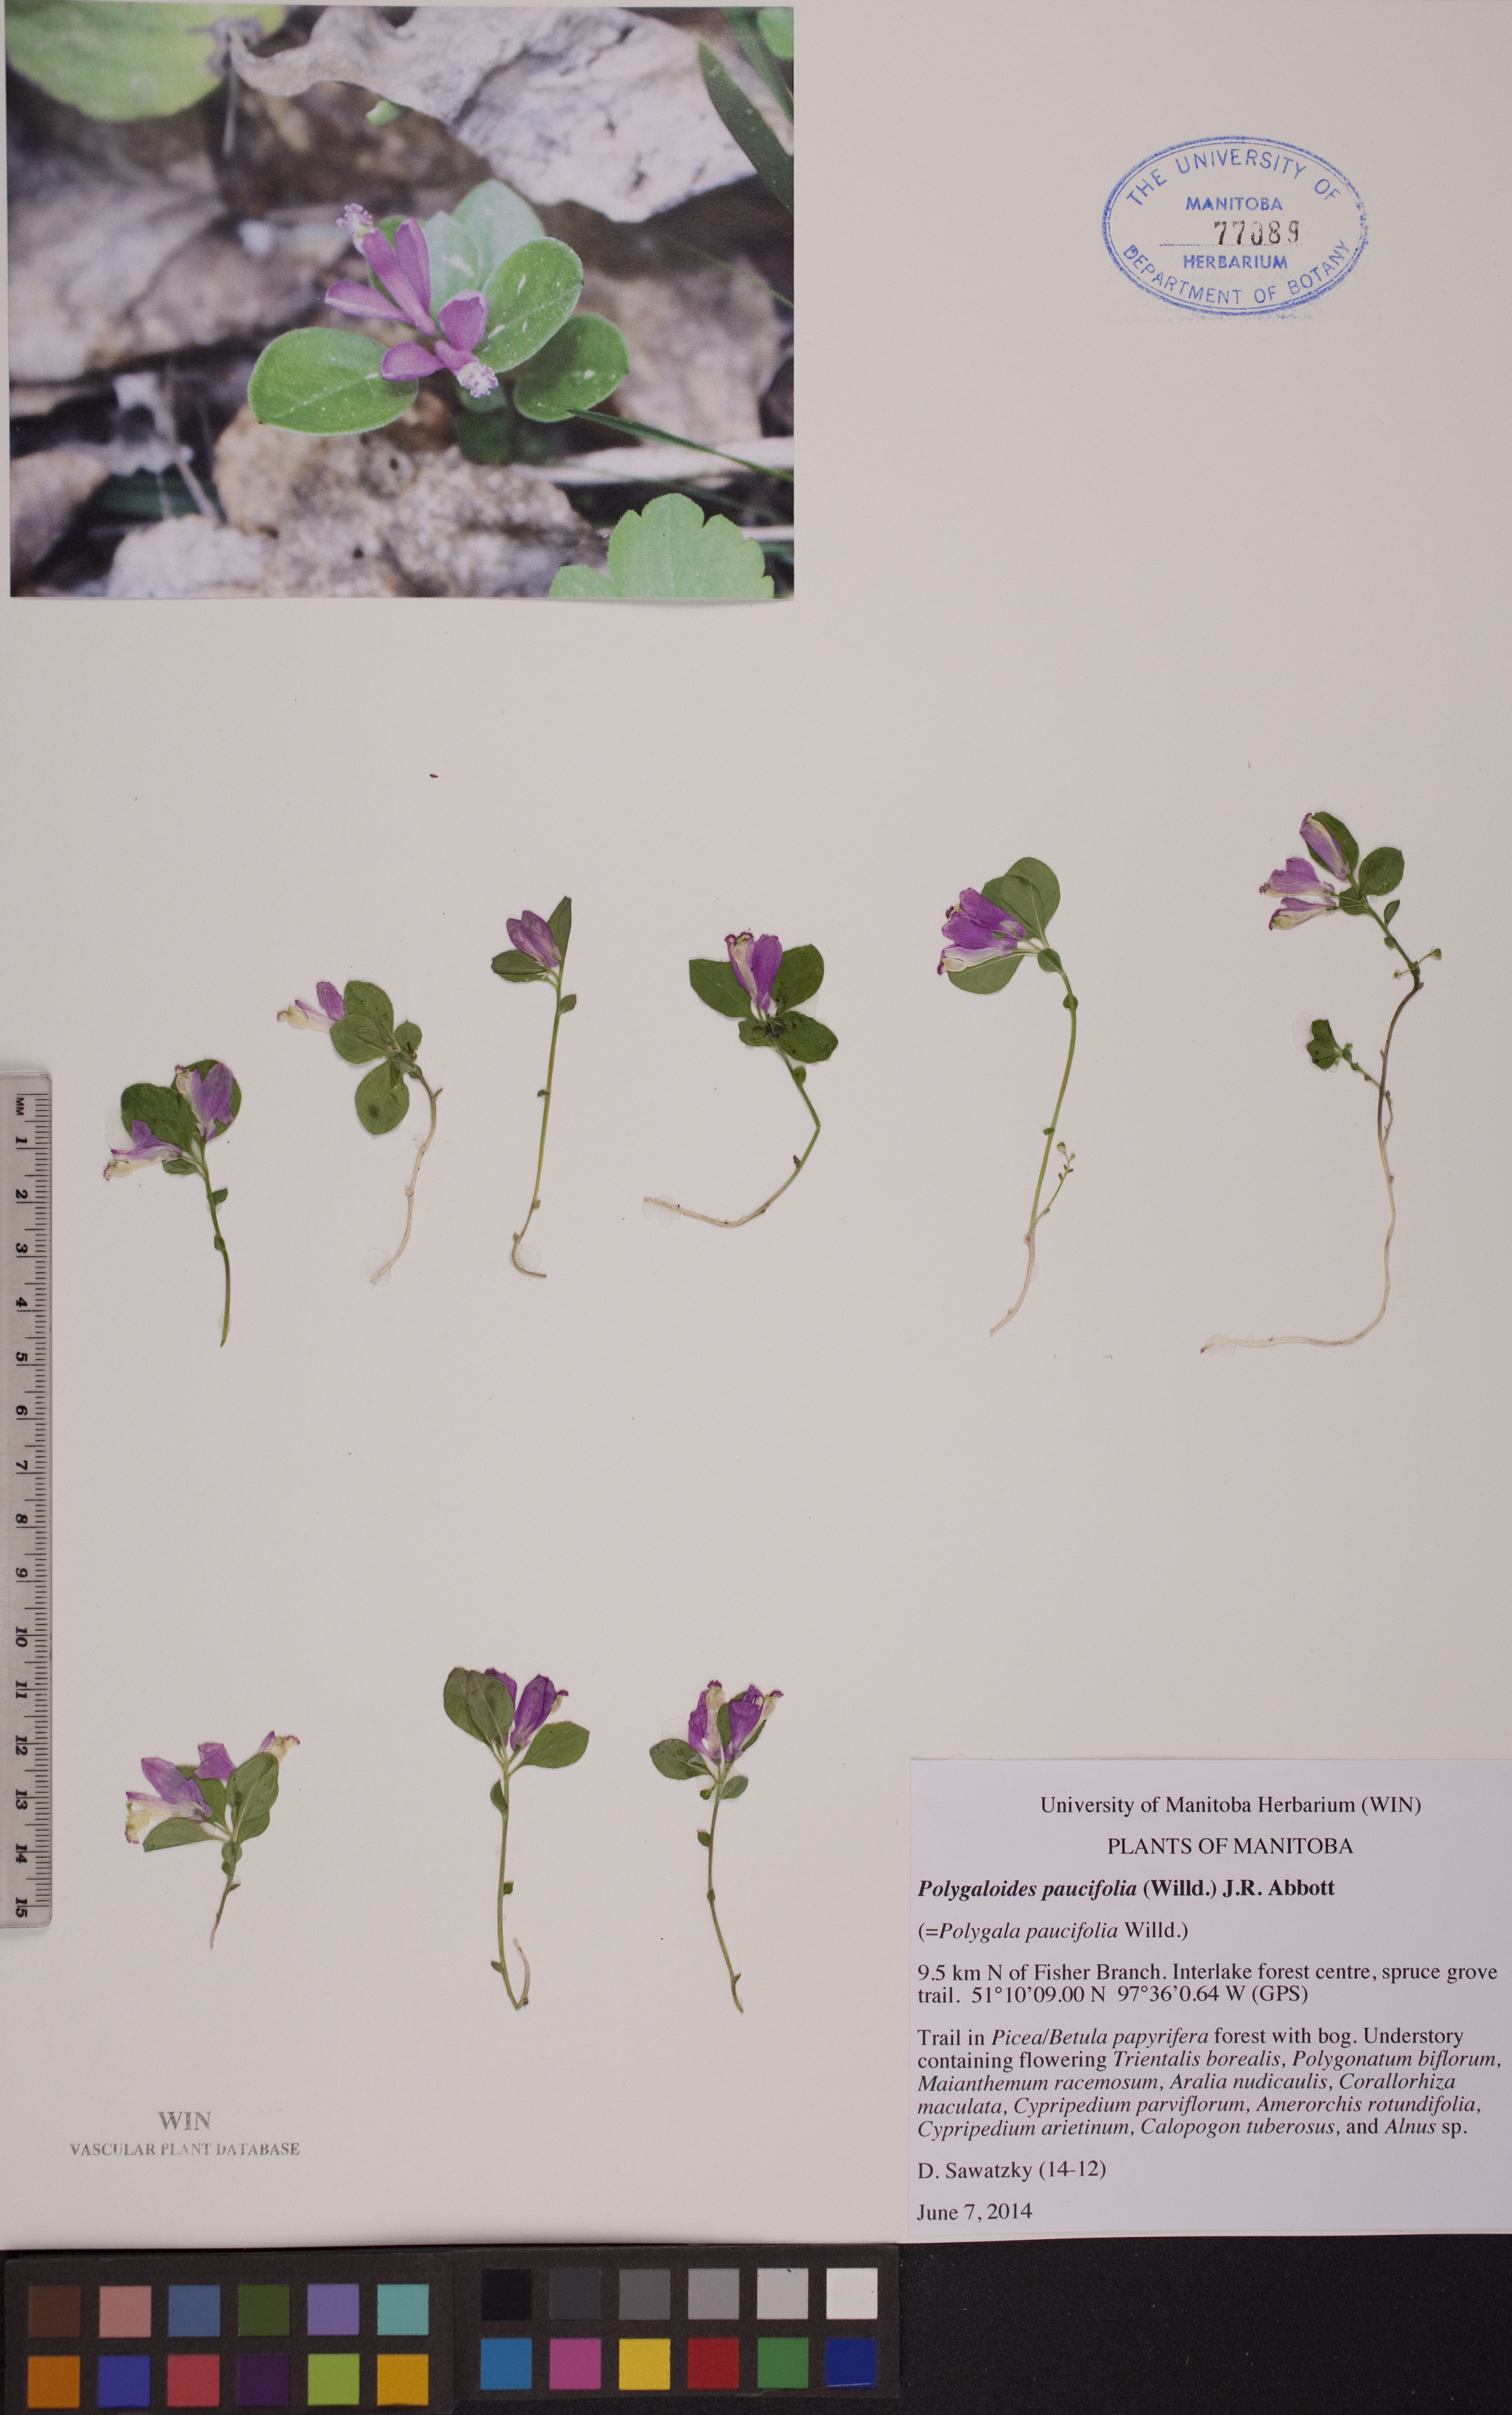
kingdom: Plantae
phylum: Tracheophyta
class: Magnoliopsida
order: Fabales
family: Polygalaceae
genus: Polygaloides
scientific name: Polygaloides paucifolia
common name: Bird-on-the-wing
